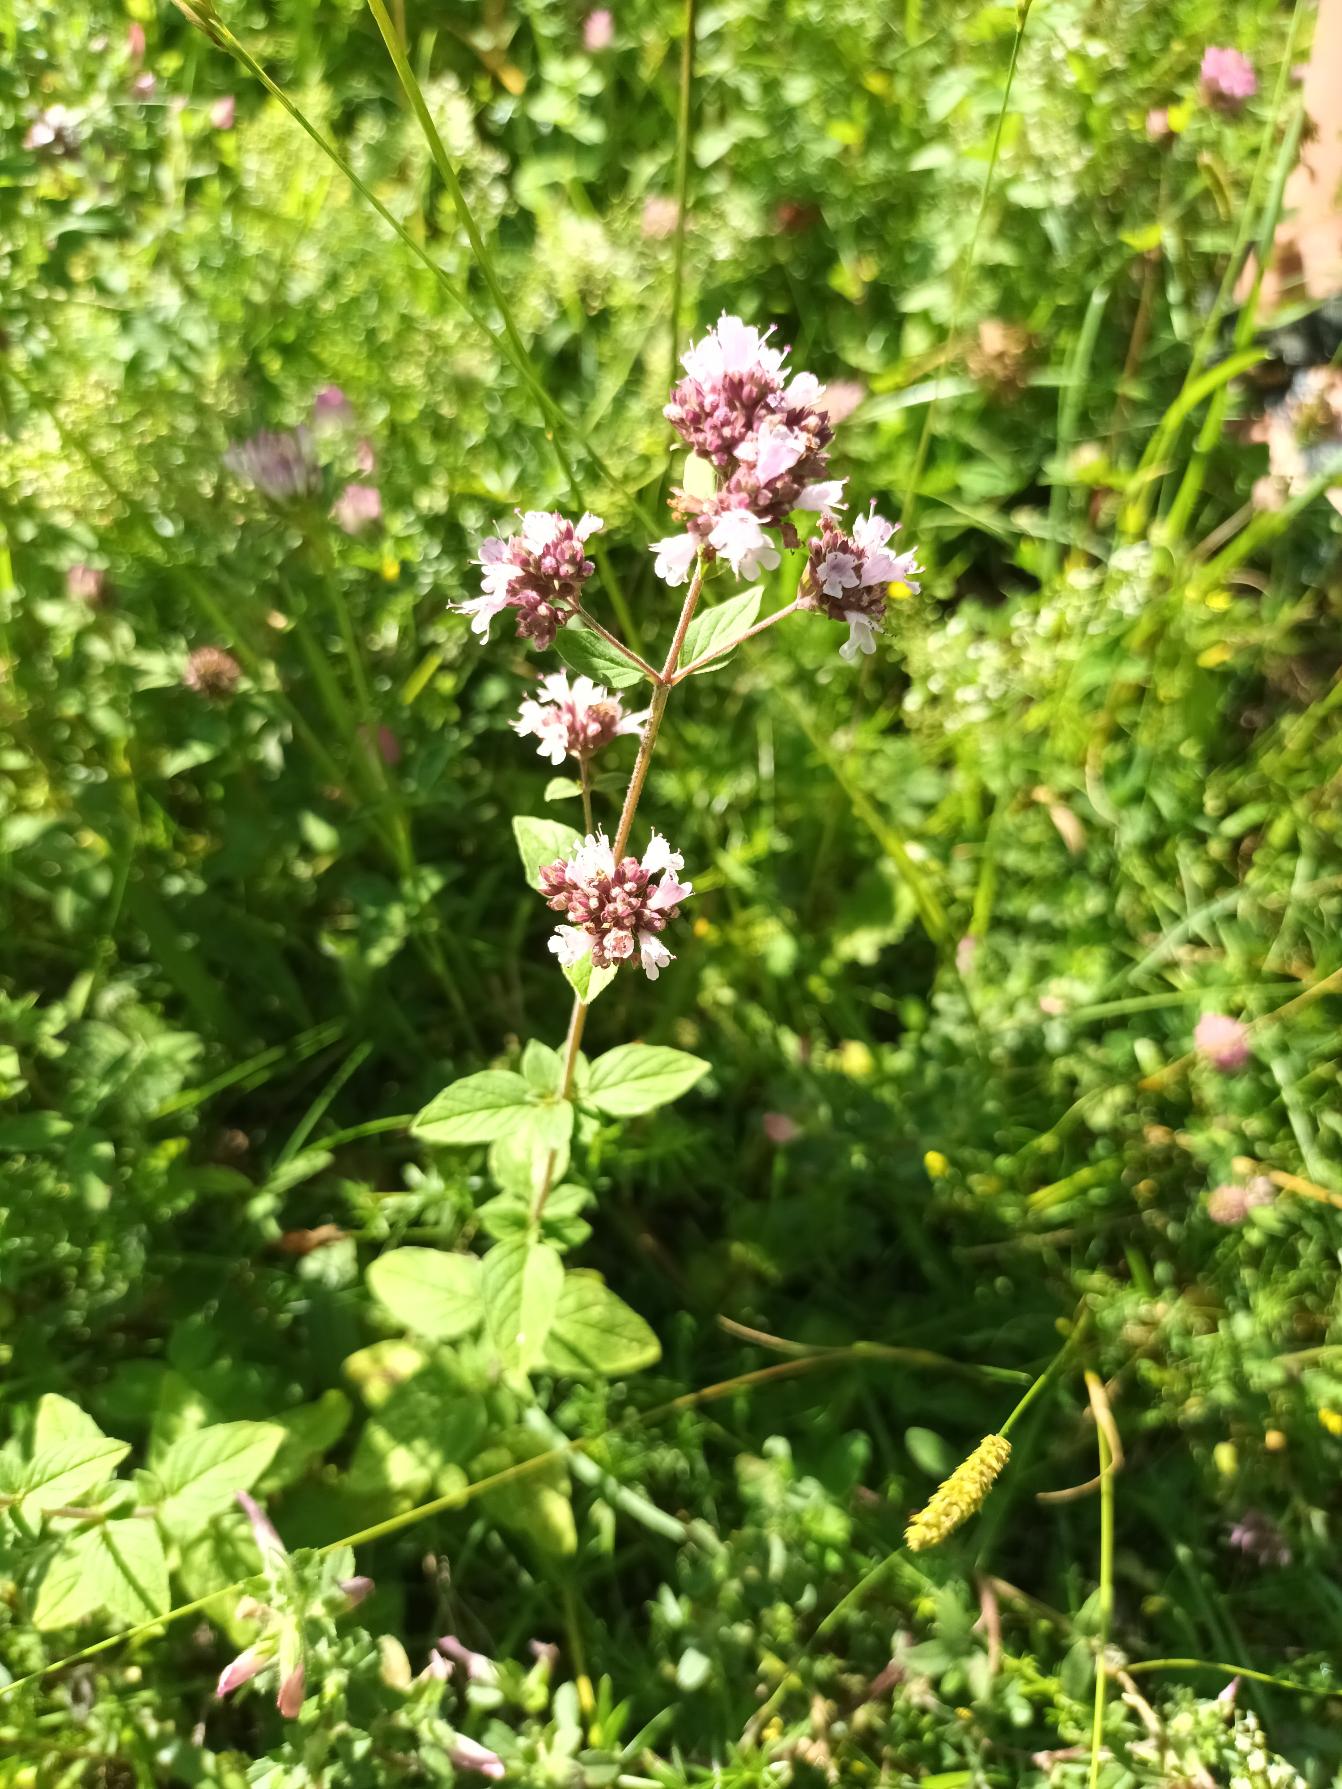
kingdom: Plantae
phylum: Tracheophyta
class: Magnoliopsida
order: Lamiales
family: Lamiaceae
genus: Origanum
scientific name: Origanum vulgare
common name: Merian
